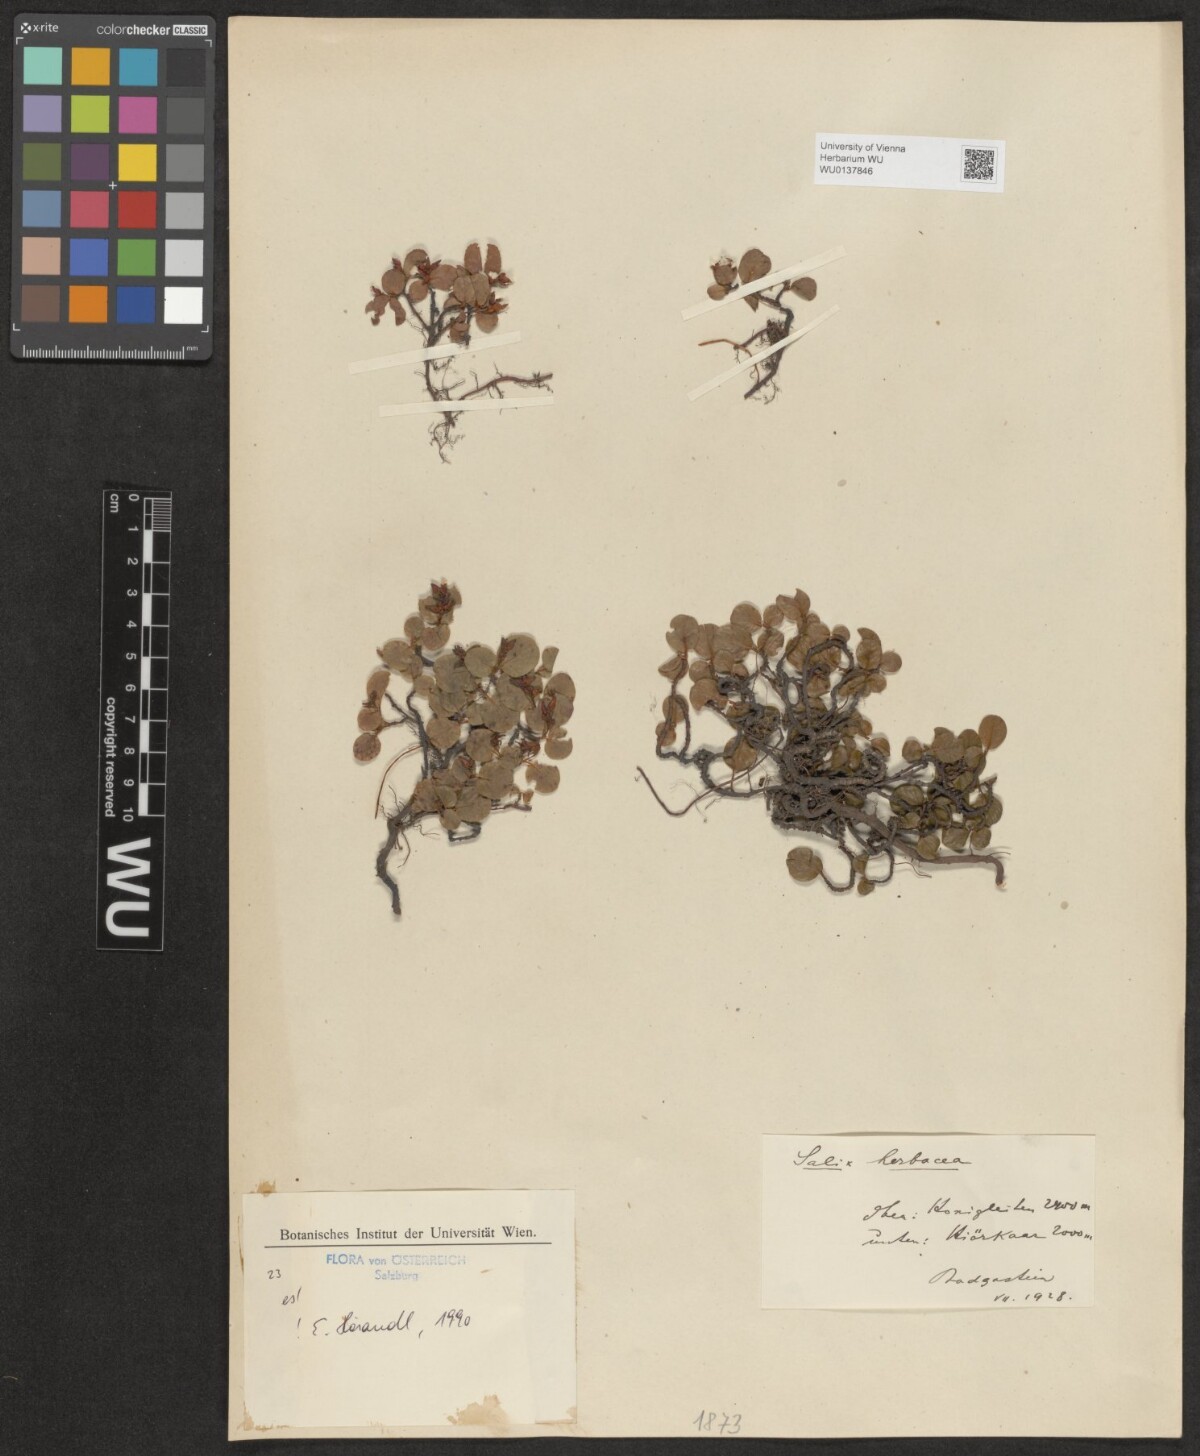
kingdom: Plantae
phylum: Tracheophyta
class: Magnoliopsida
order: Malpighiales
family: Salicaceae
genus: Salix
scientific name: Salix herbacea
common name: Dwarf willow
